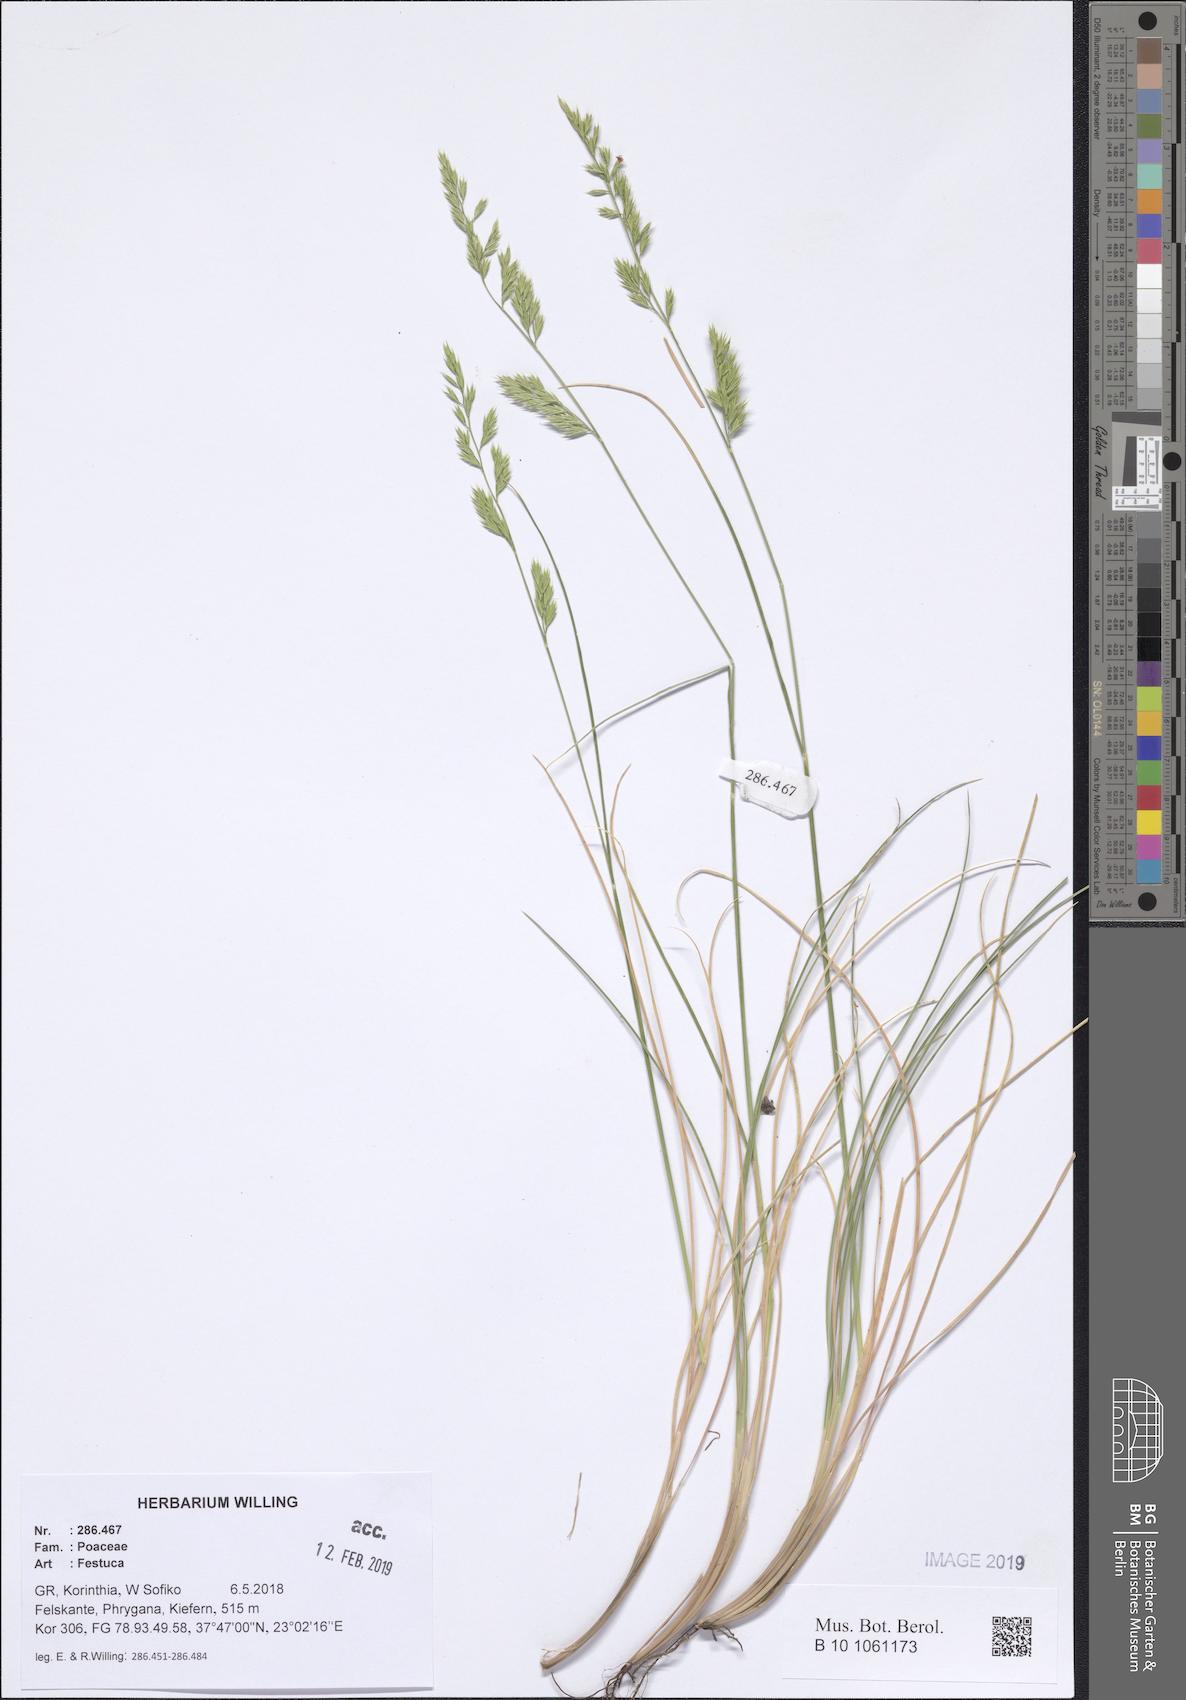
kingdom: Plantae
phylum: Tracheophyta
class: Liliopsida
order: Poales
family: Poaceae
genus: Festuca
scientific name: Festuca
